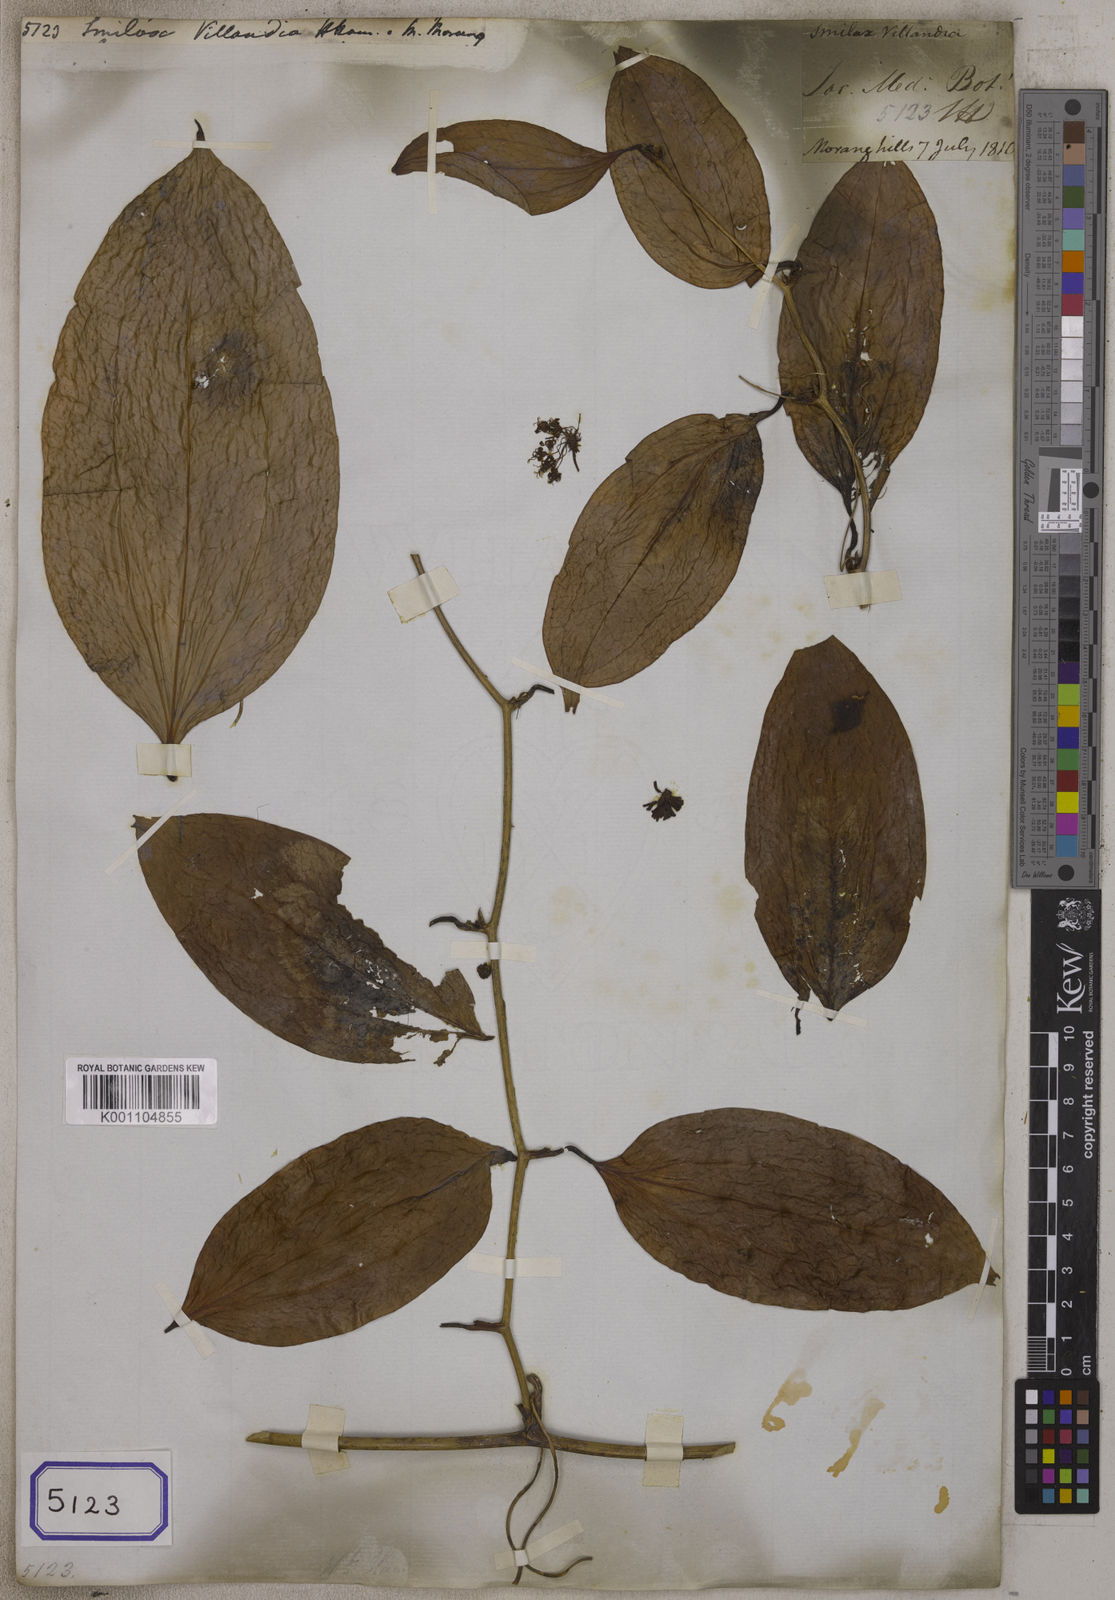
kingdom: Plantae
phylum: Tracheophyta
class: Liliopsida
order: Liliales
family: Smilacaceae
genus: Smilax
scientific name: Smilax
